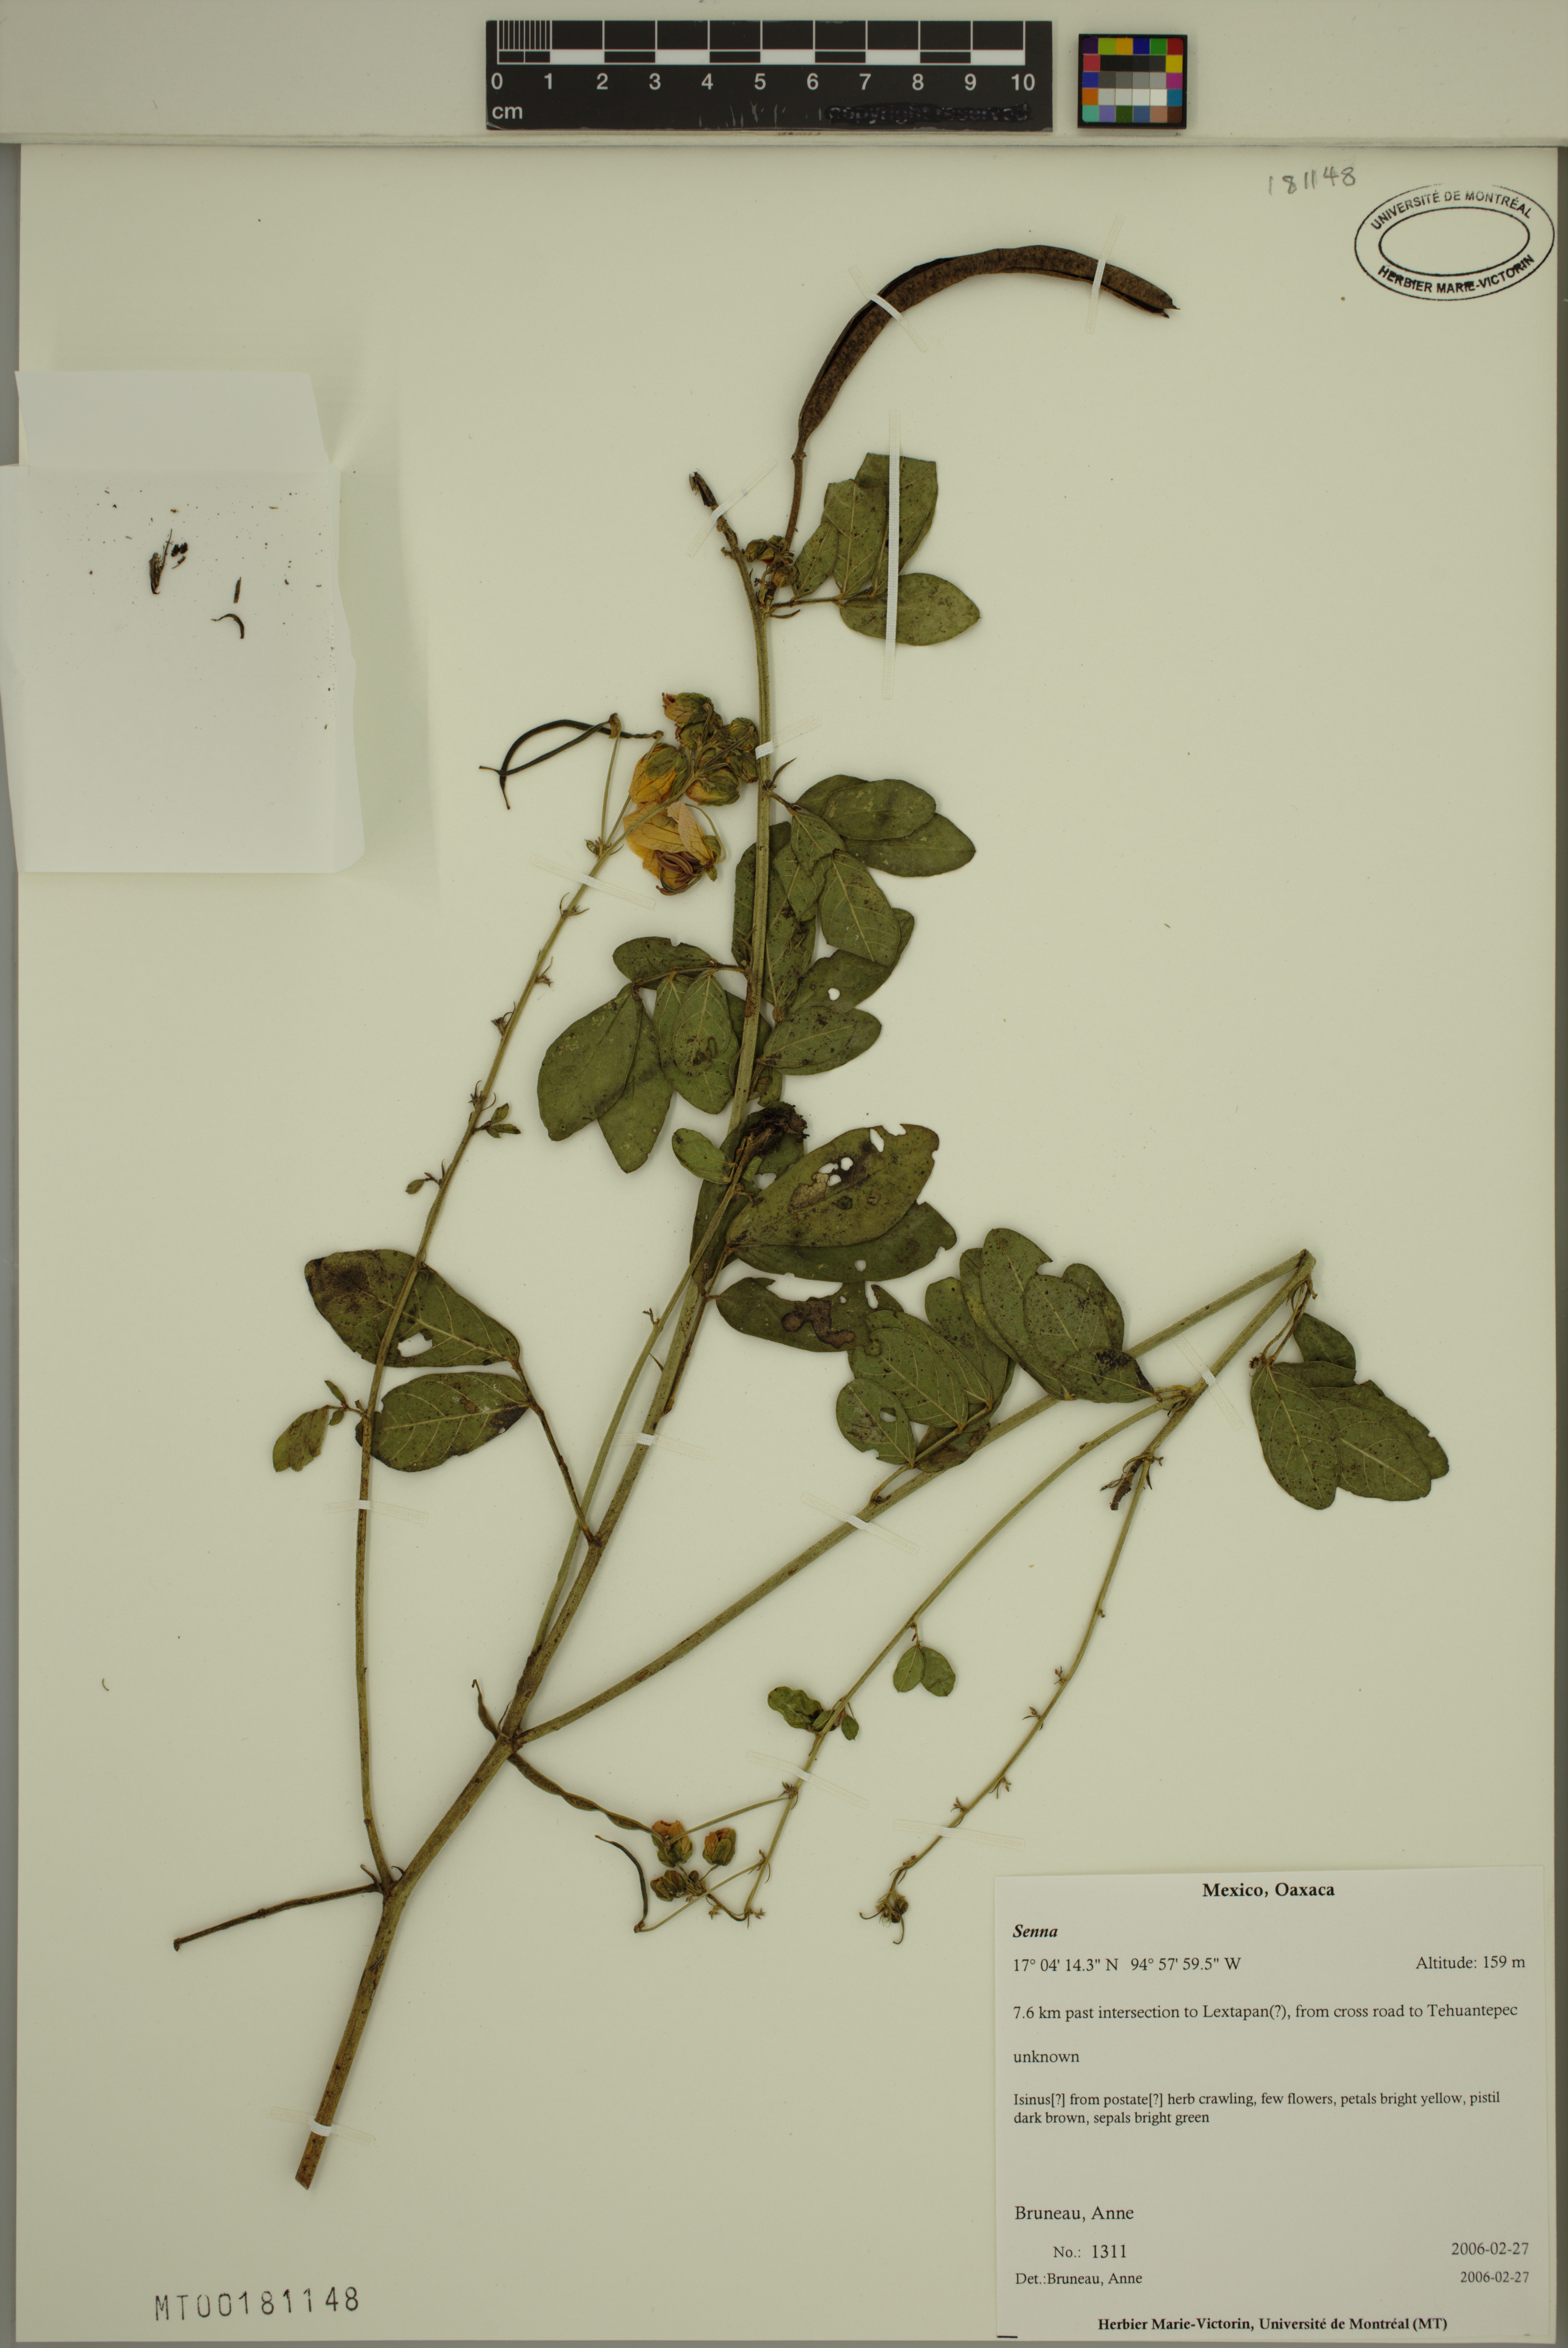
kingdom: Plantae
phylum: Tracheophyta
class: Magnoliopsida
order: Fabales
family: Fabaceae
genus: Senna
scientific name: Senna
